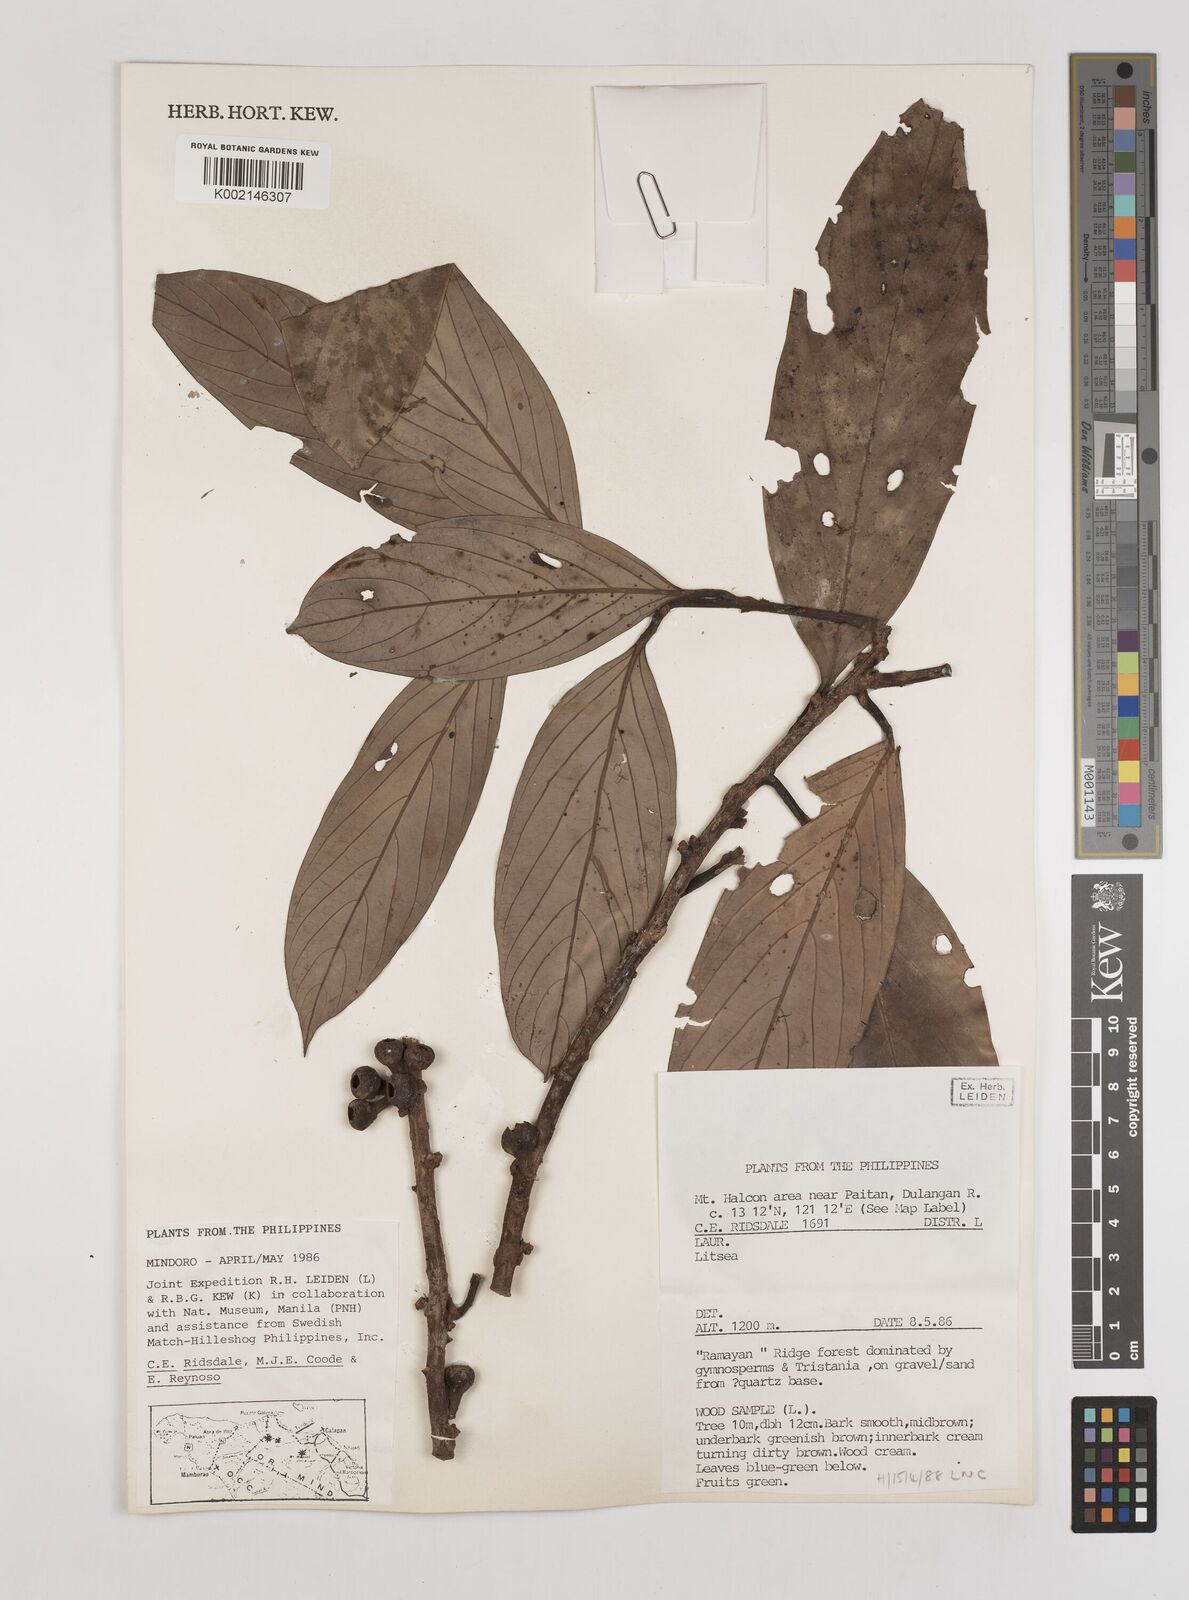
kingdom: Plantae
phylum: Tracheophyta
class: Magnoliopsida
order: Laurales
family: Lauraceae
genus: Litsea
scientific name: Litsea
